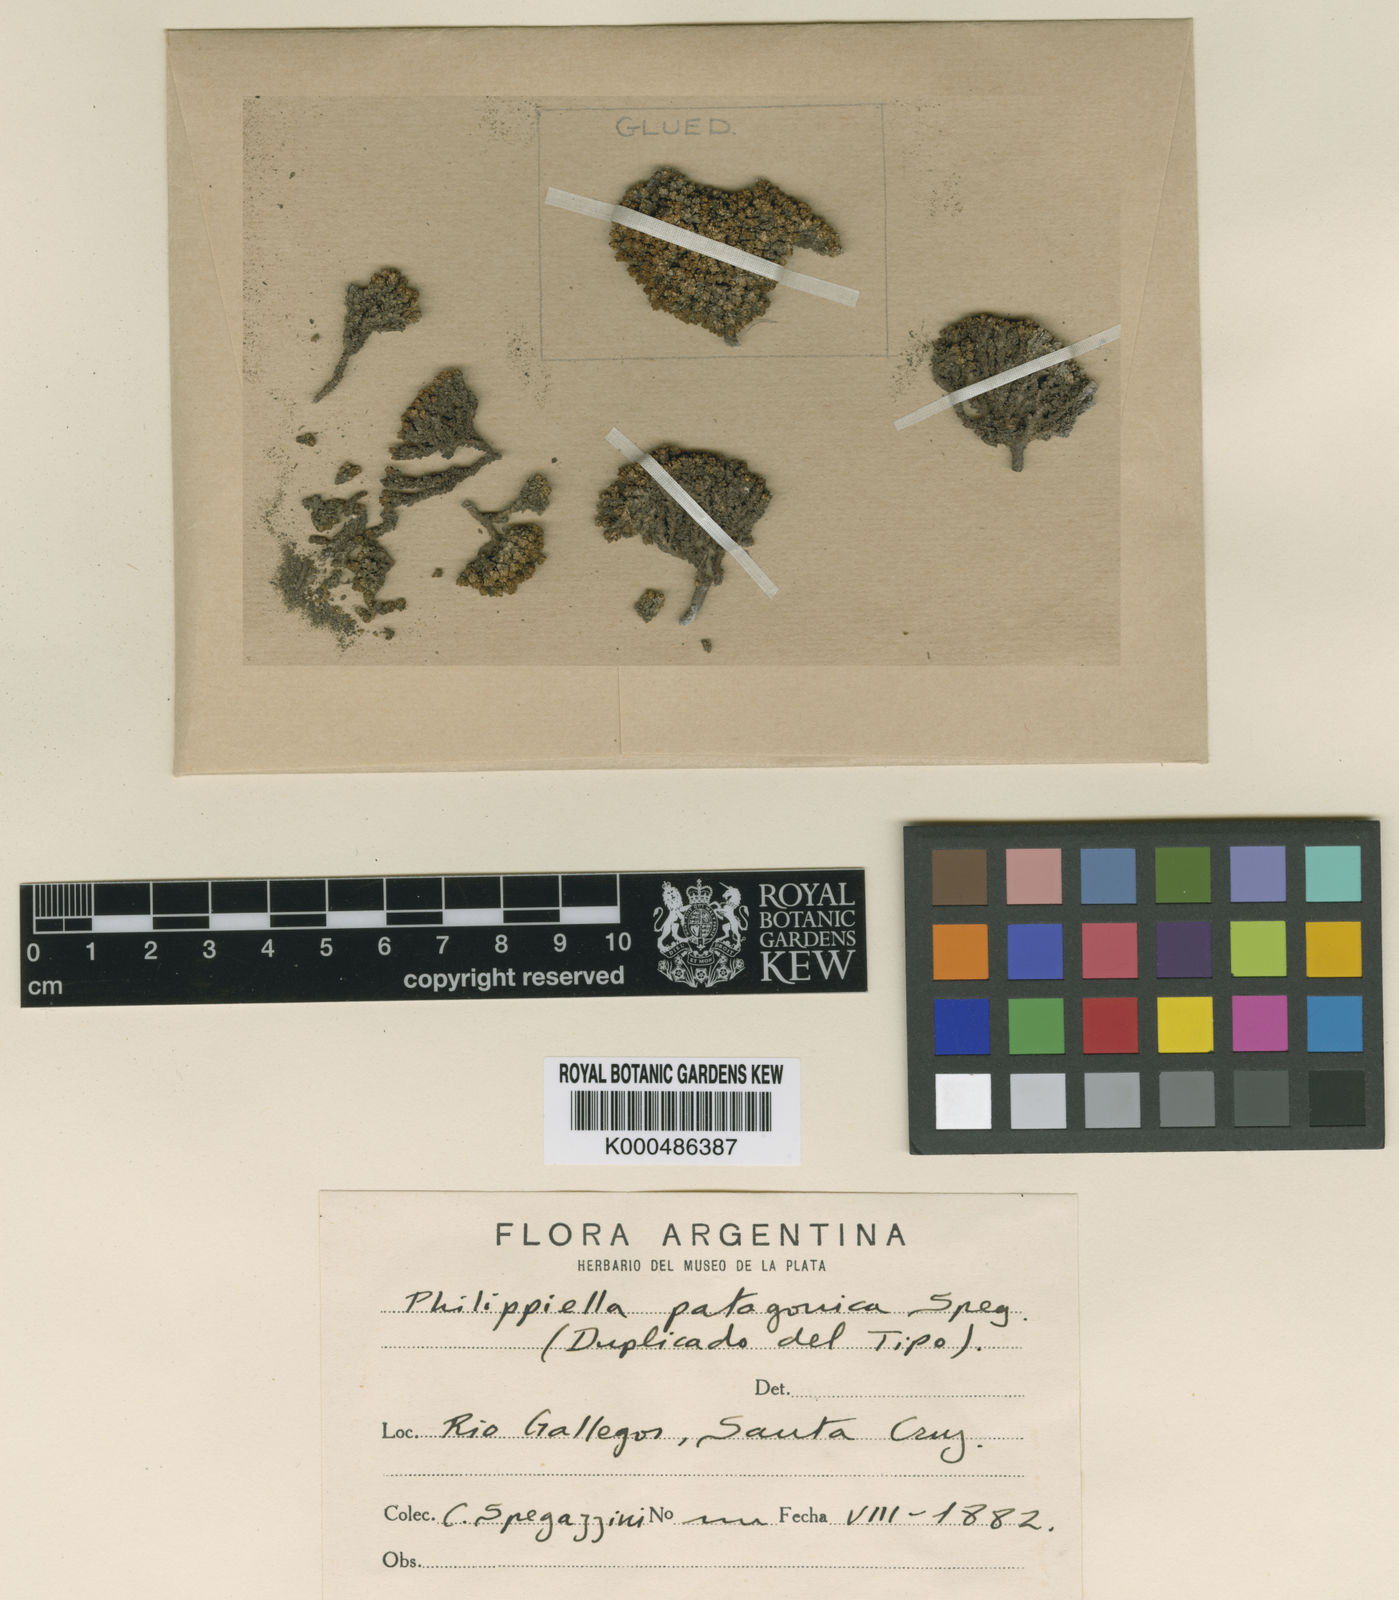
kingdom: Plantae
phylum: Tracheophyta
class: Magnoliopsida
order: Caryophyllales
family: Caryophyllaceae
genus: Philippiella
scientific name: Philippiella patagonica
